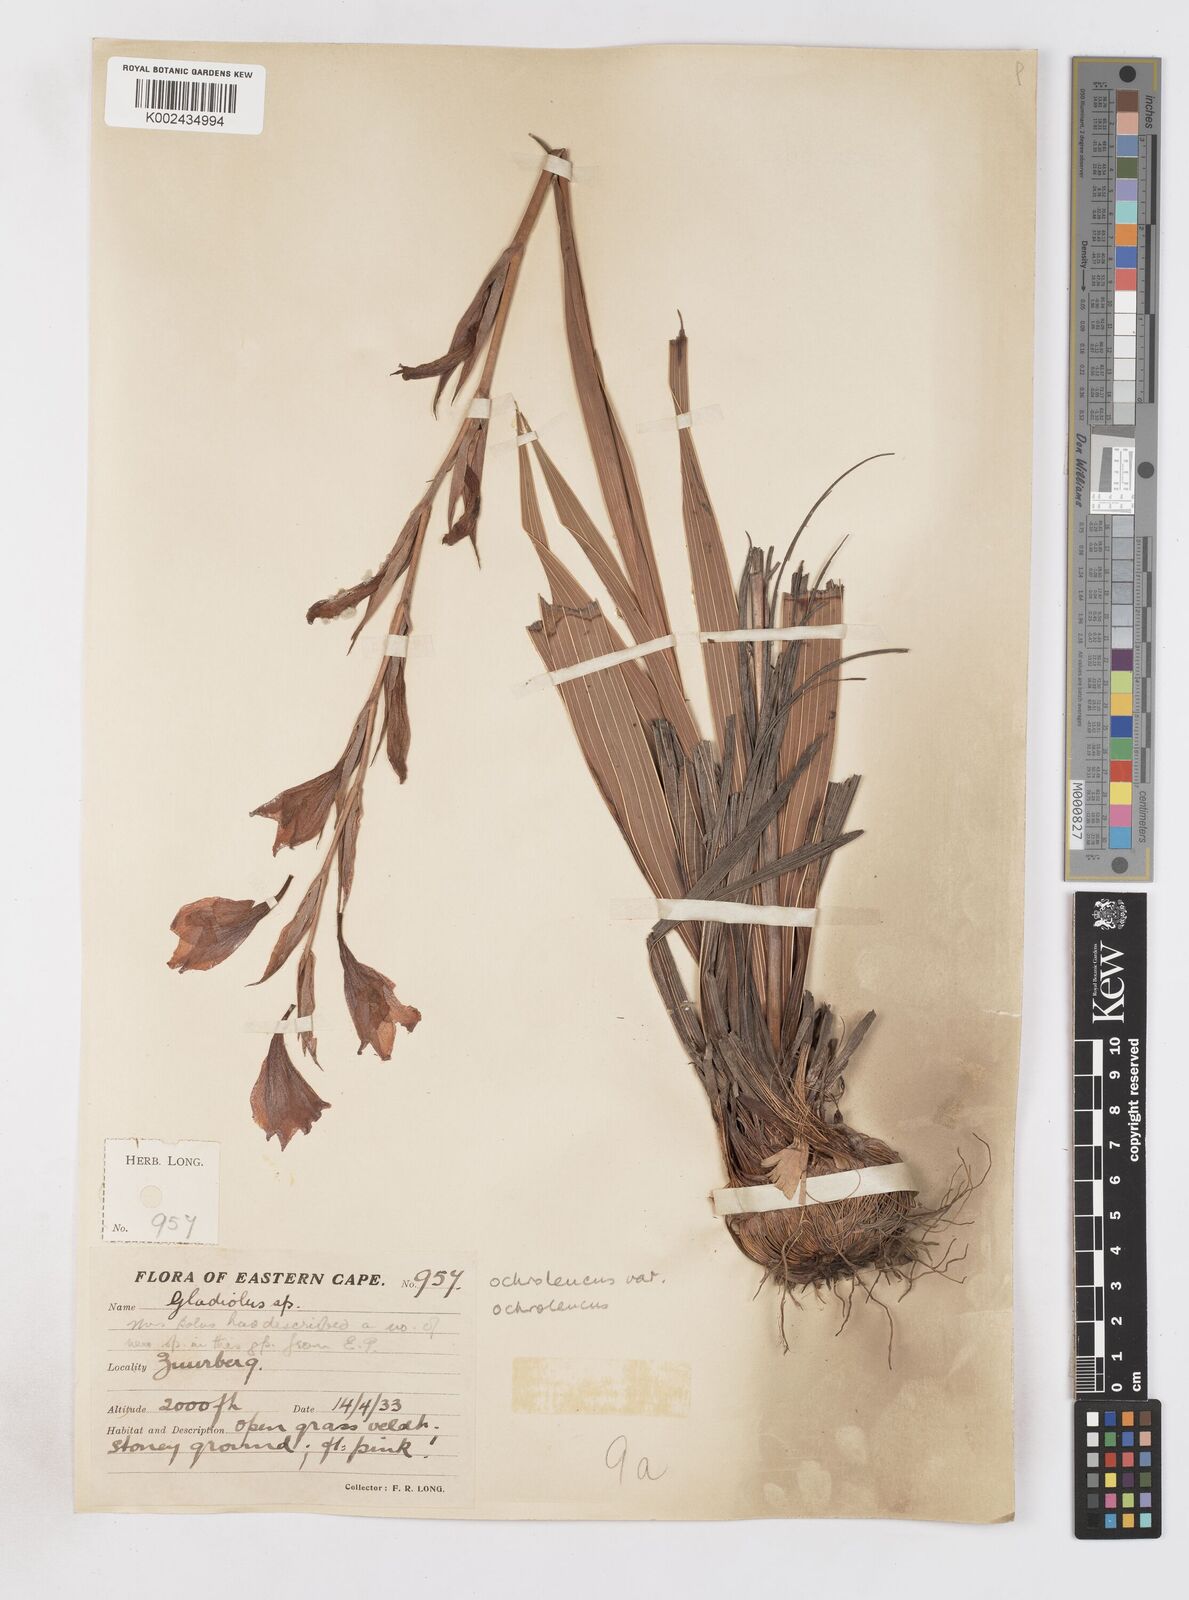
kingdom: Plantae
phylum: Tracheophyta
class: Liliopsida
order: Asparagales
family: Iridaceae
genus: Gladiolus
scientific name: Gladiolus ochroleucus
